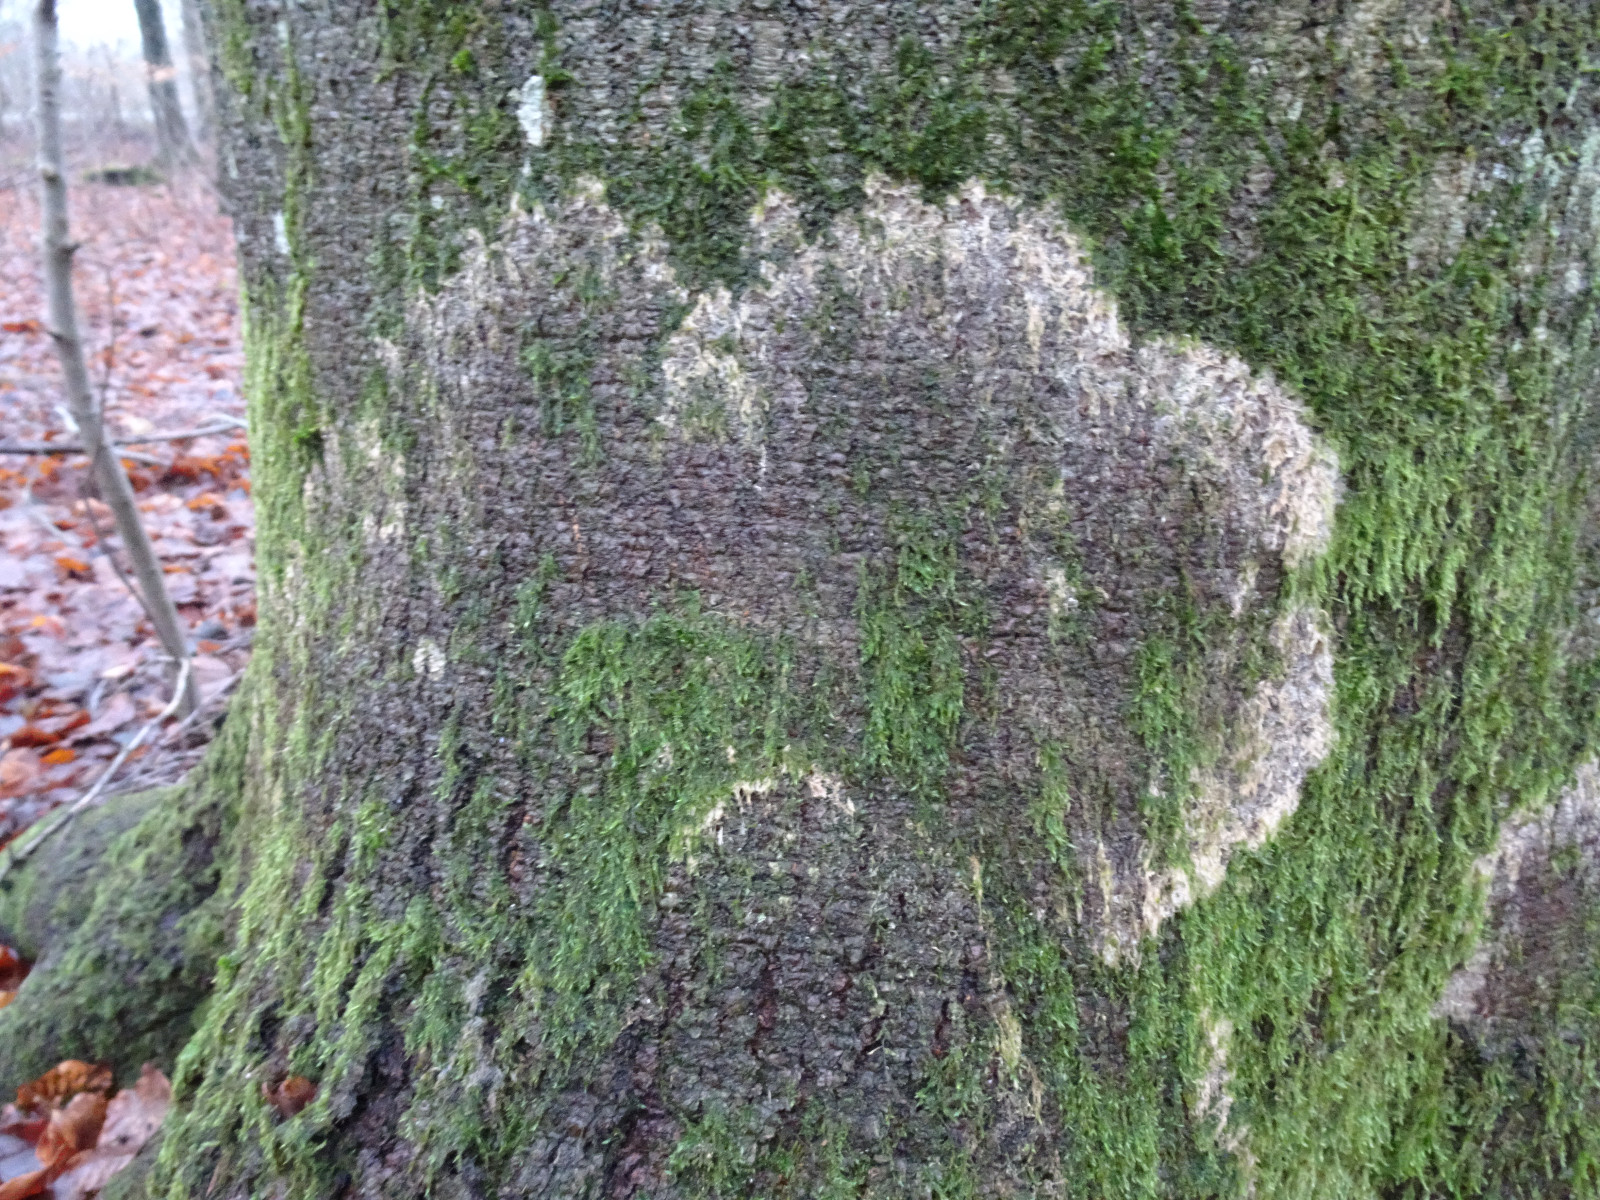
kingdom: Fungi
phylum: Basidiomycota
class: Agaricomycetes
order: Corticiales
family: Corticiaceae
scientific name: Corticiaceae
